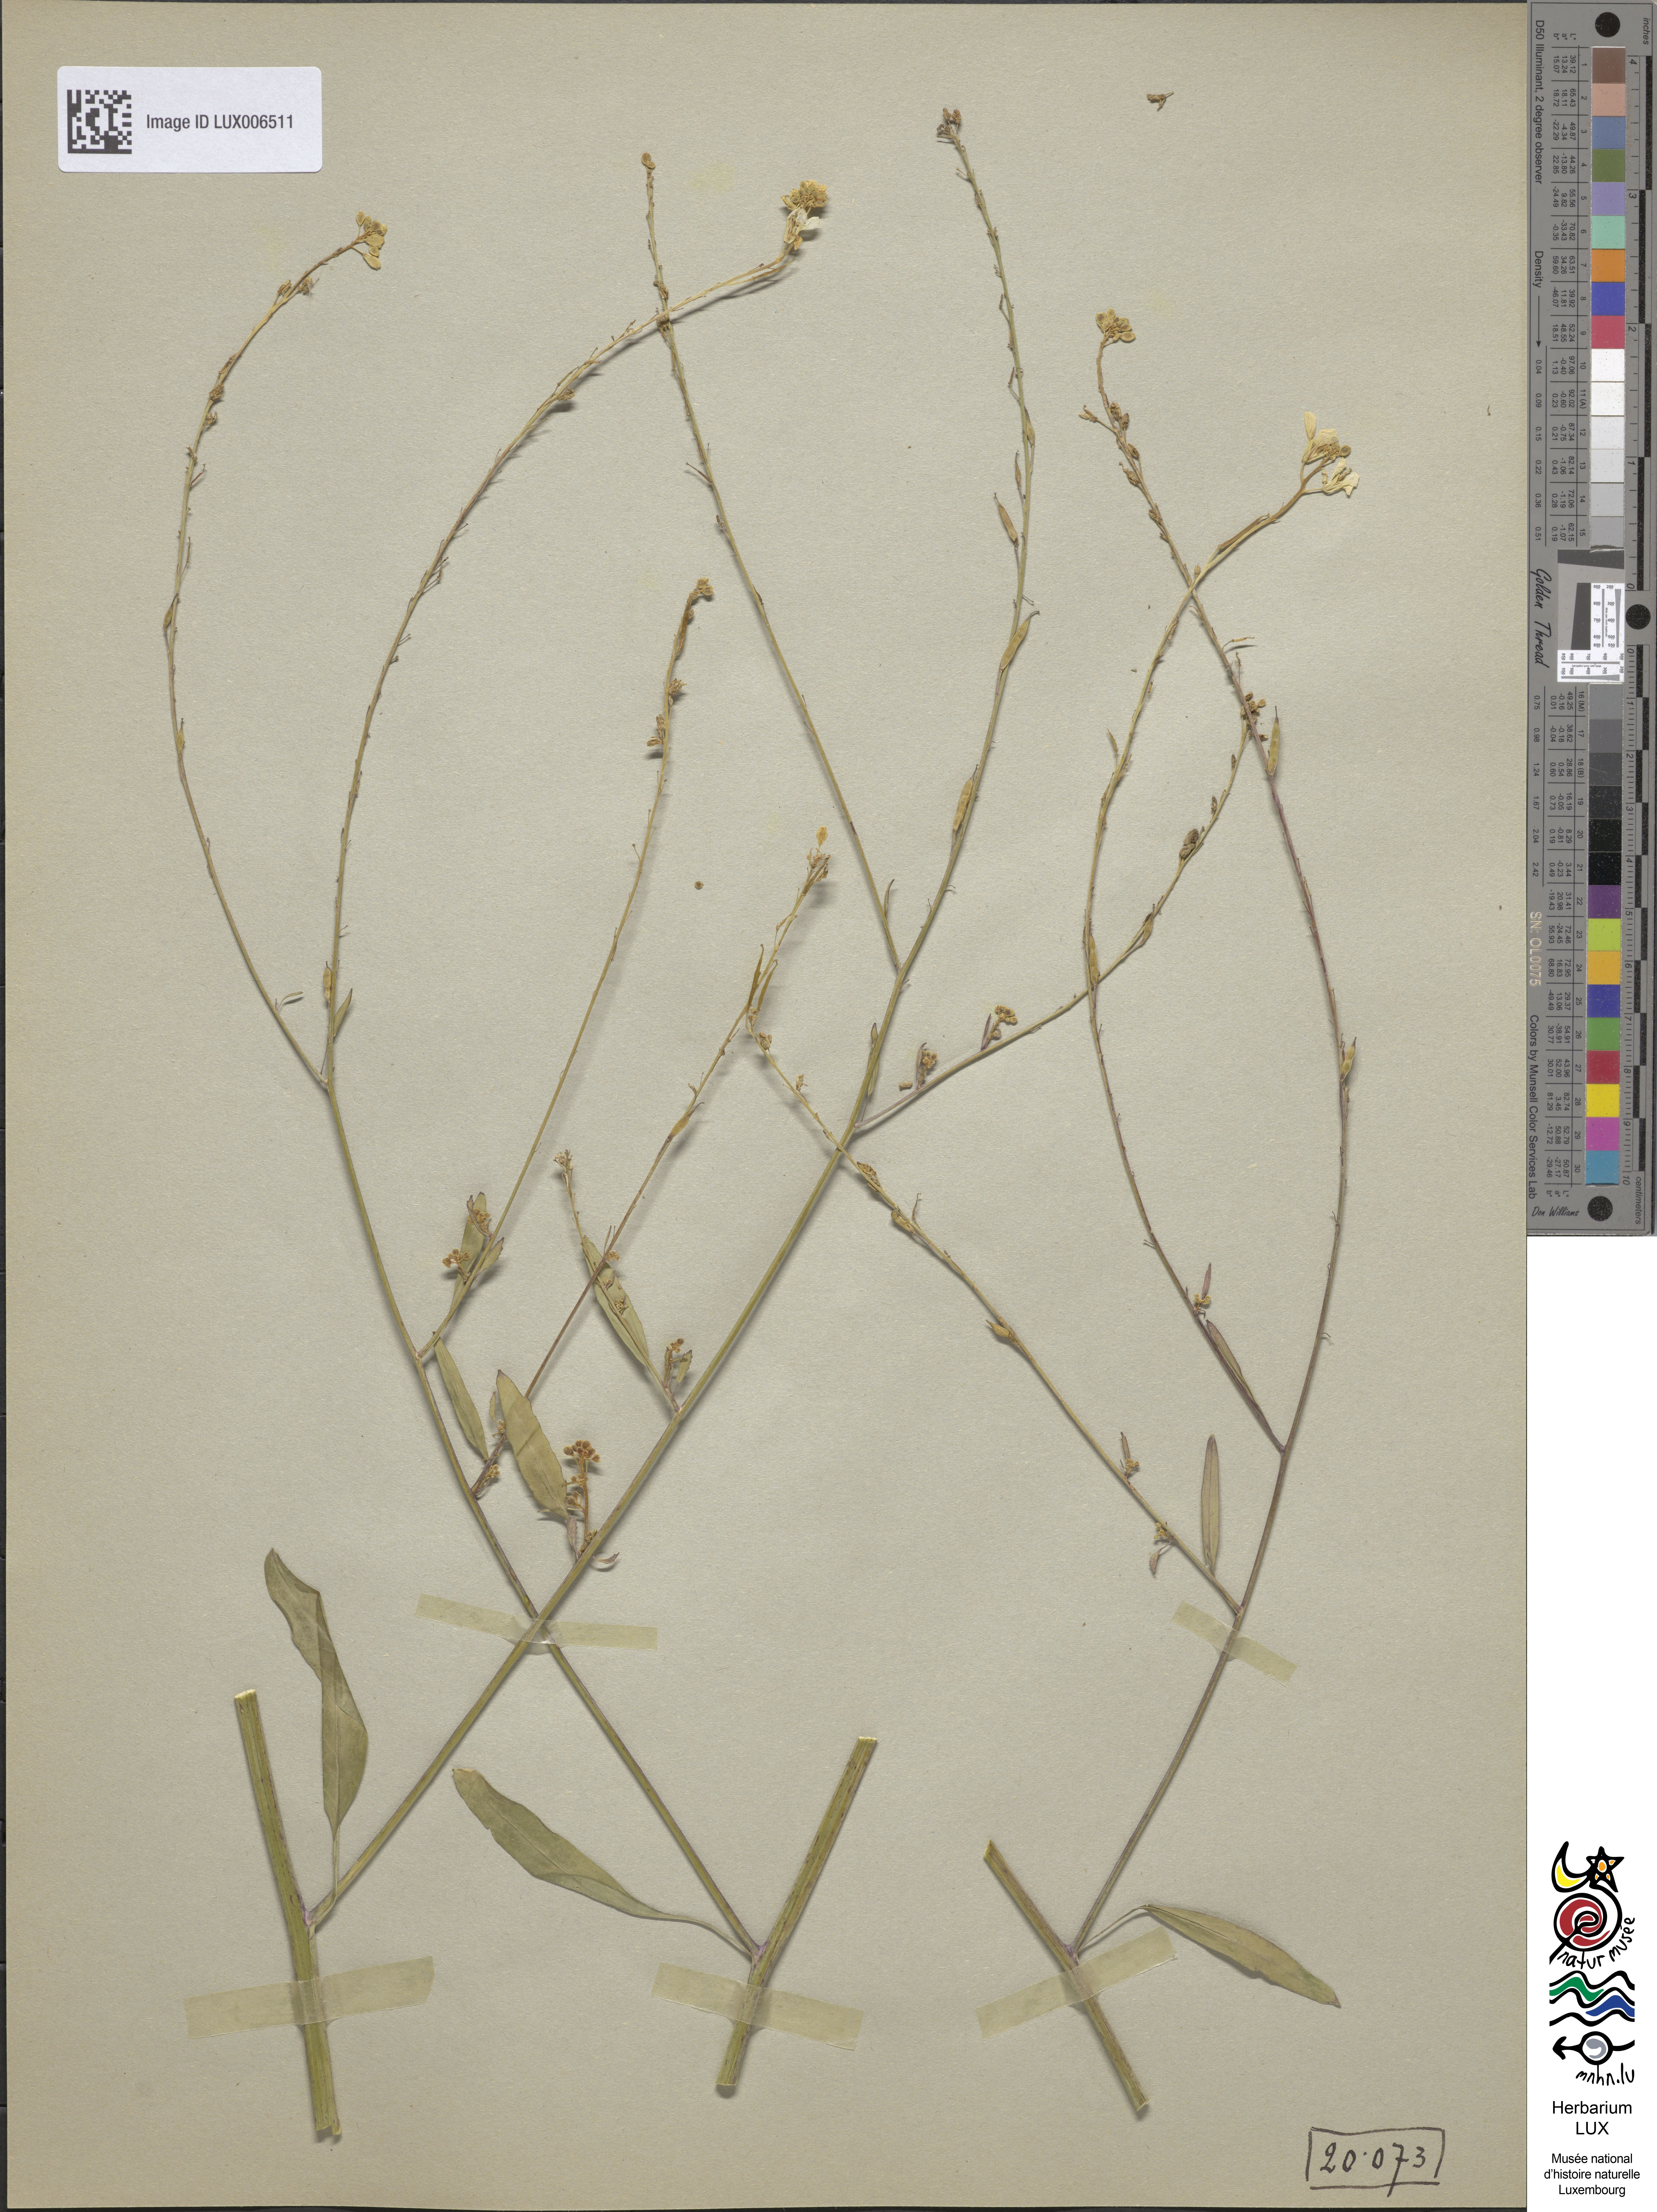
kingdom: Plantae
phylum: Tracheophyta
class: Magnoliopsida
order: Brassicales
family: Brassicaceae
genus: Brassica
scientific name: Brassica nigra
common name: Black mustard
